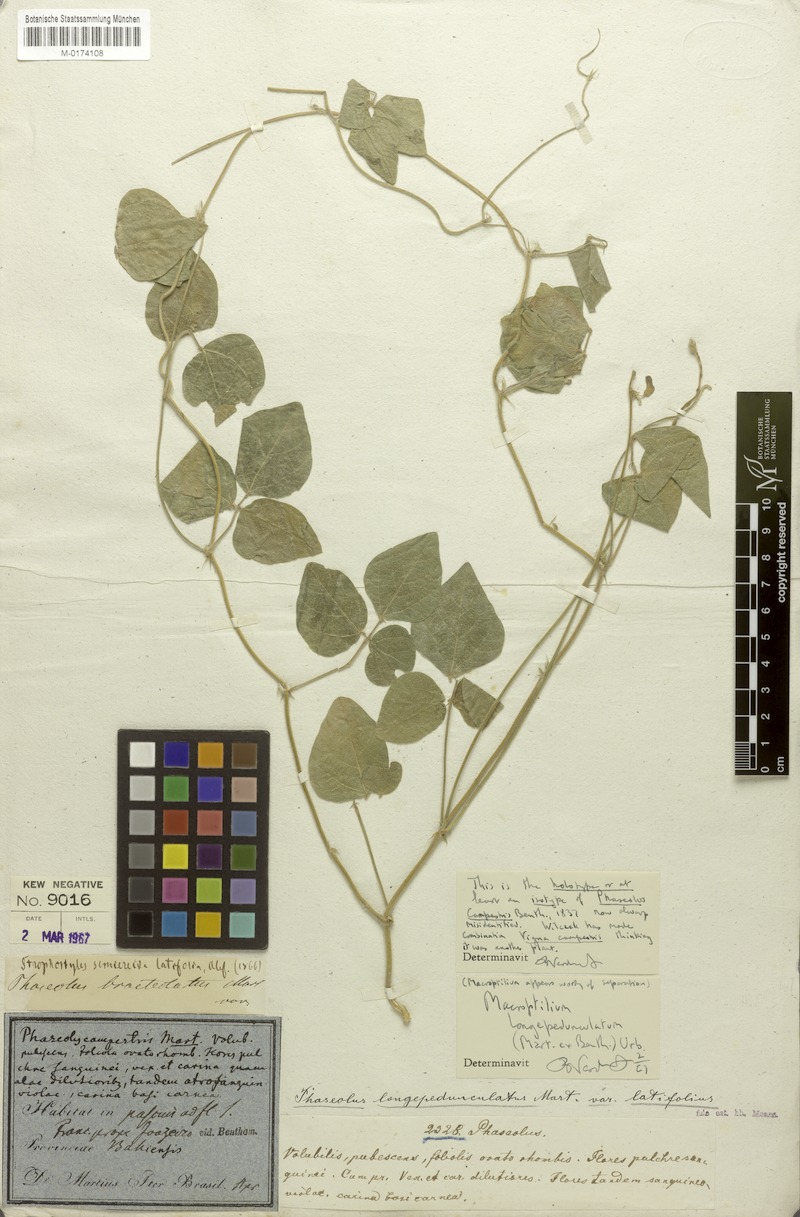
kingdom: Plantae
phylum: Tracheophyta
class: Magnoliopsida
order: Fabales
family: Fabaceae
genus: Macroptilium
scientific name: Macroptilium gracile
